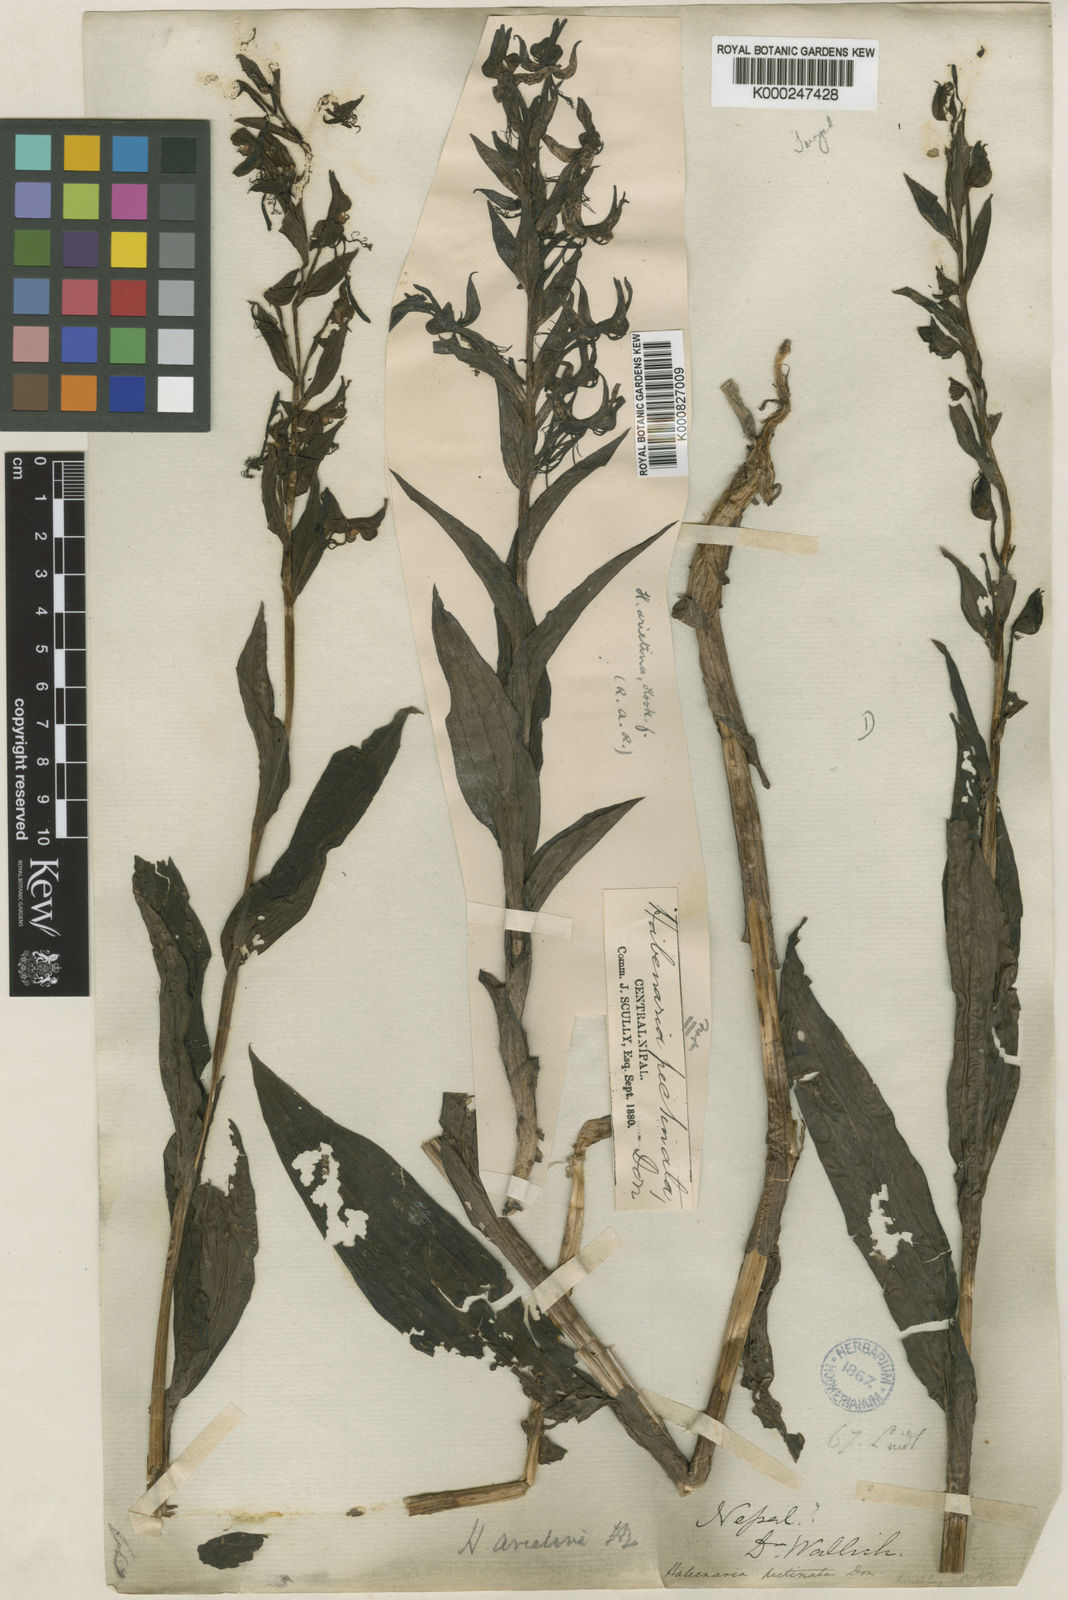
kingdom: Plantae
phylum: Tracheophyta
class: Liliopsida
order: Asparagales
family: Orchidaceae
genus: Habenaria
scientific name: Habenaria pectinata
